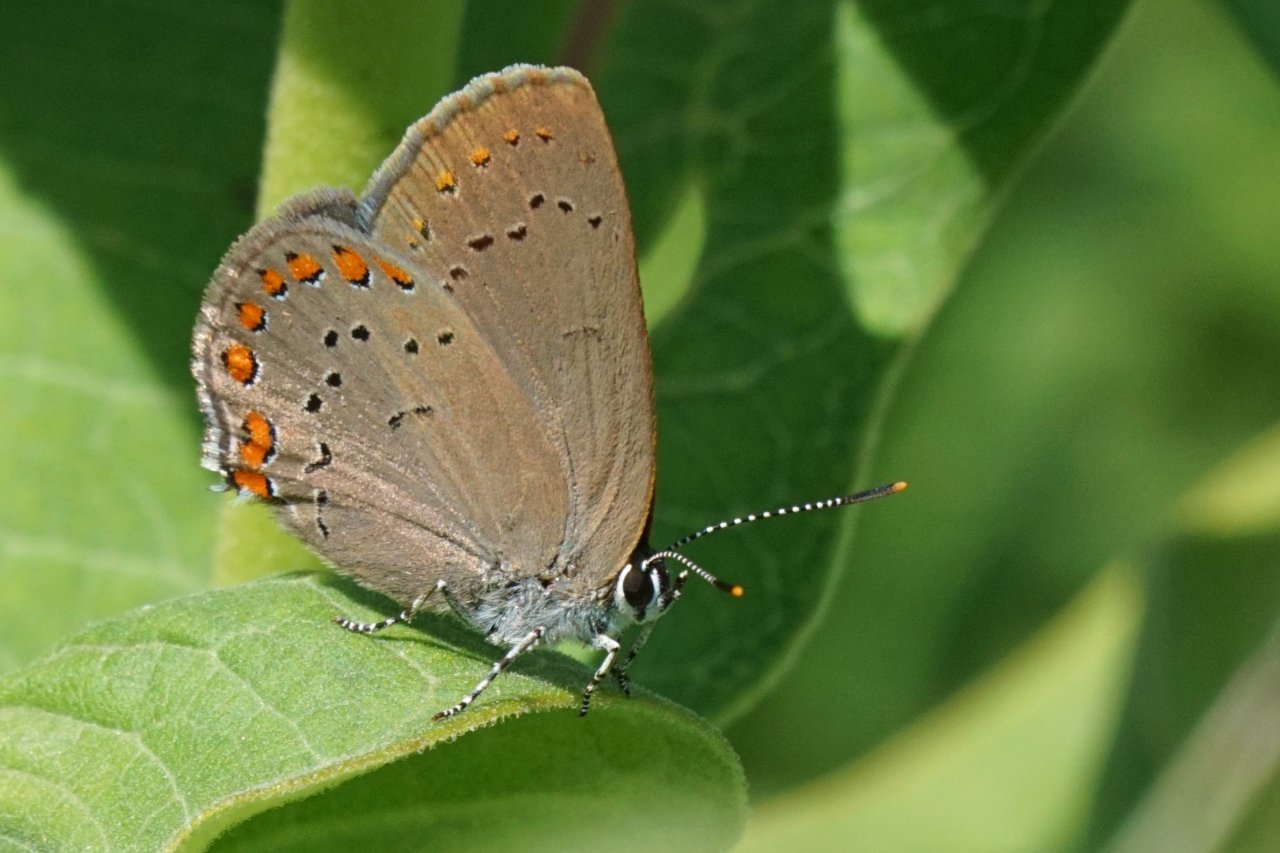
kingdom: Animalia
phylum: Arthropoda
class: Insecta
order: Lepidoptera
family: Lycaenidae
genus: Harkenclenus
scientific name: Harkenclenus titus
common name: Coral Hairstreak
